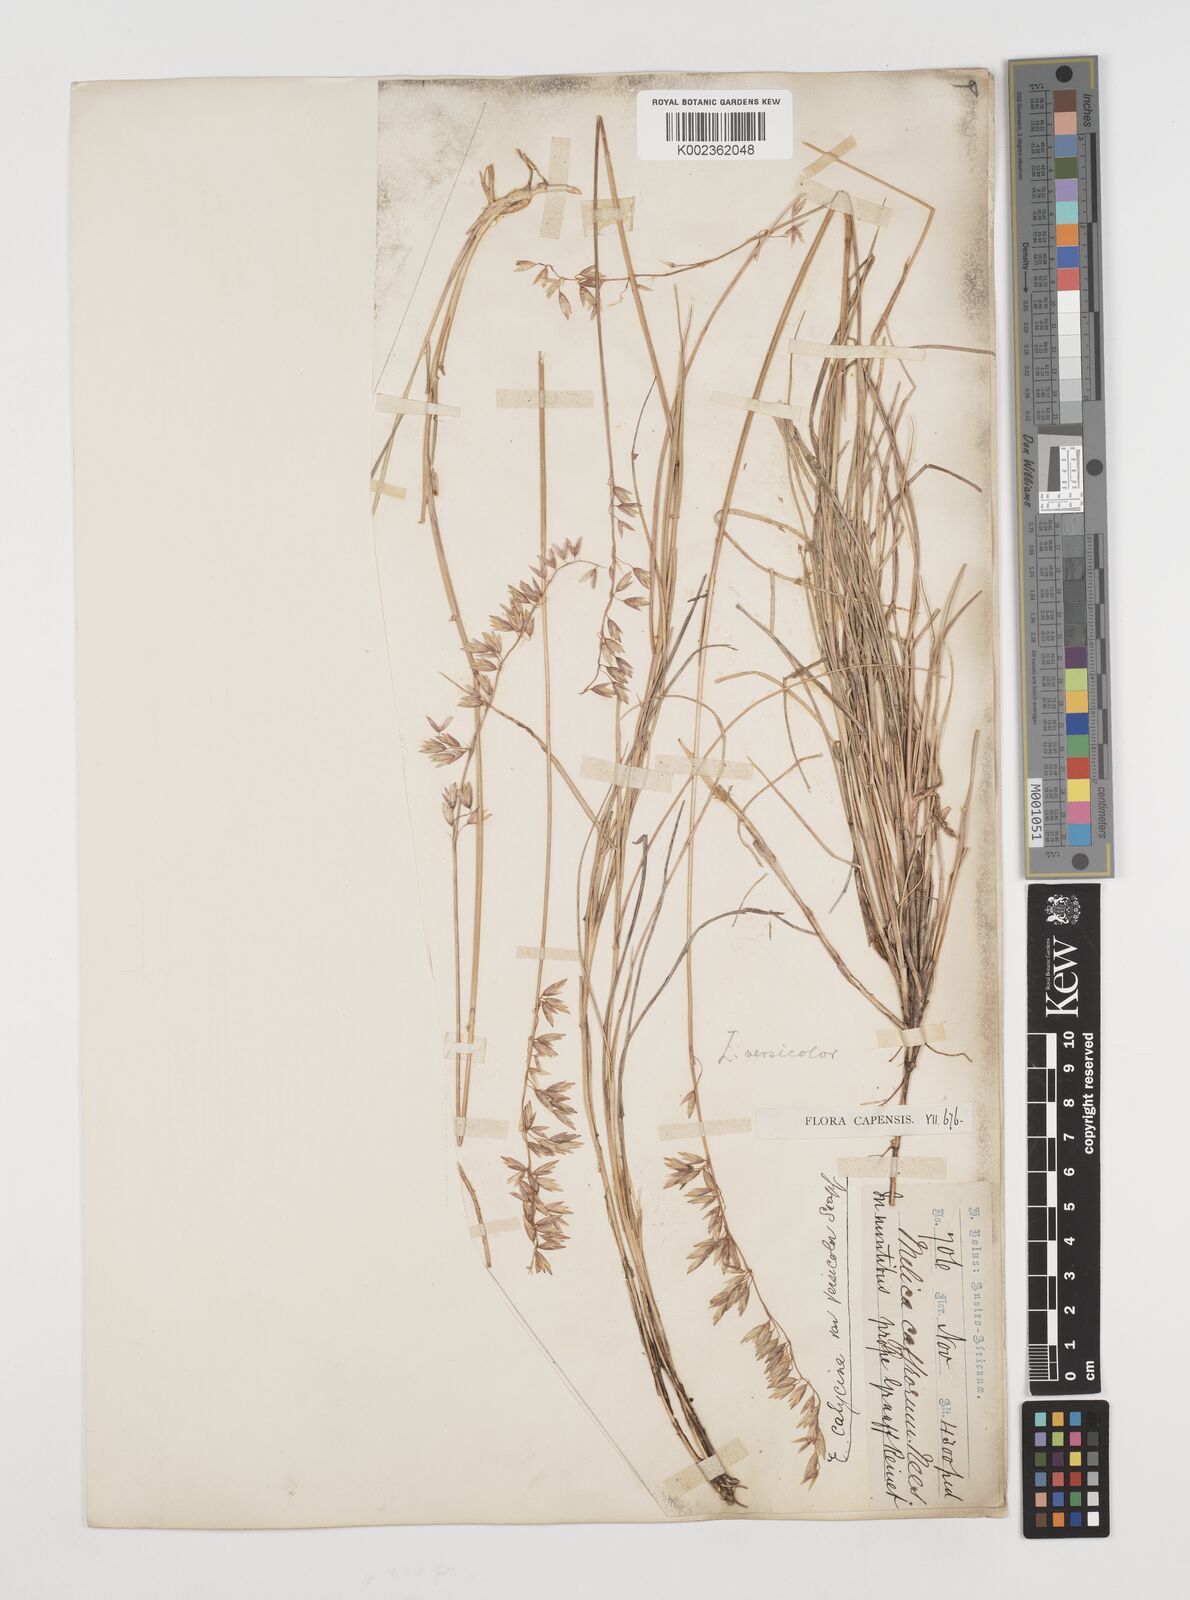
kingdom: Plantae
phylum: Tracheophyta
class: Liliopsida
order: Poales
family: Poaceae
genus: Ehrharta
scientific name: Ehrharta calycina
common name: Perennial veldtgrass
